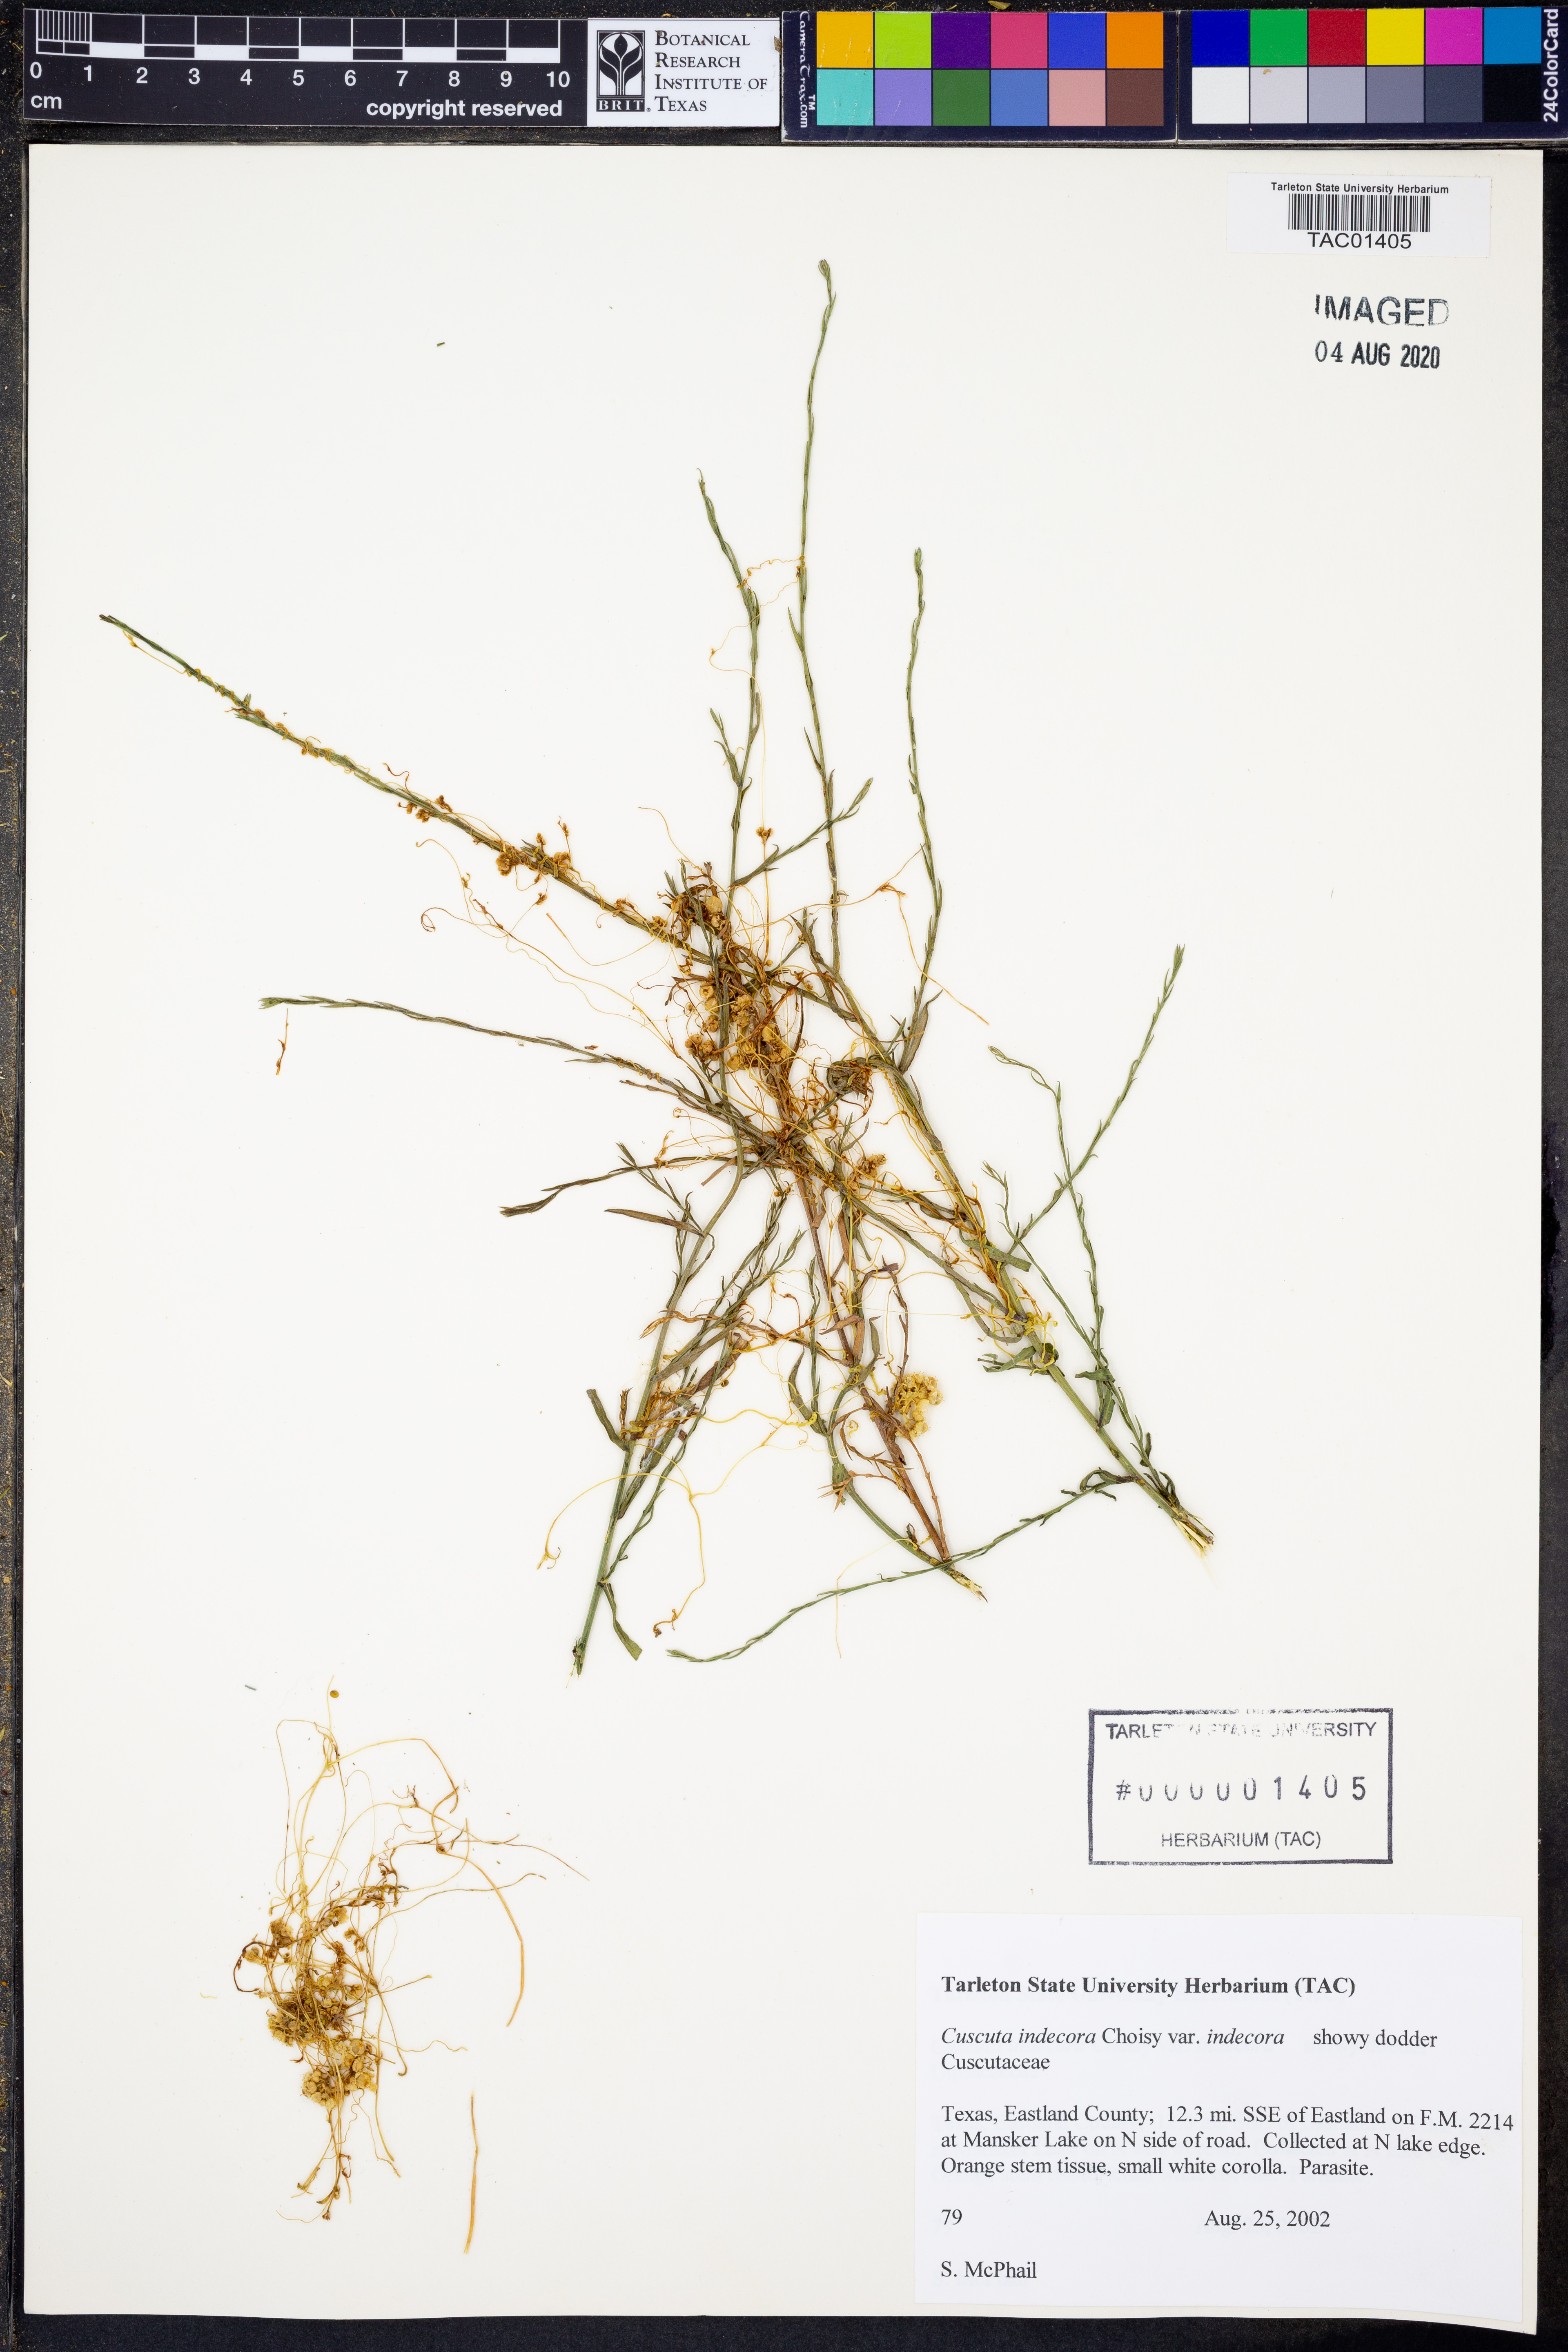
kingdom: Plantae
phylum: Tracheophyta
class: Magnoliopsida
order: Solanales
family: Convolvulaceae
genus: Cuscuta
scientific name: Cuscuta indecora
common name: Large-seed dodder
